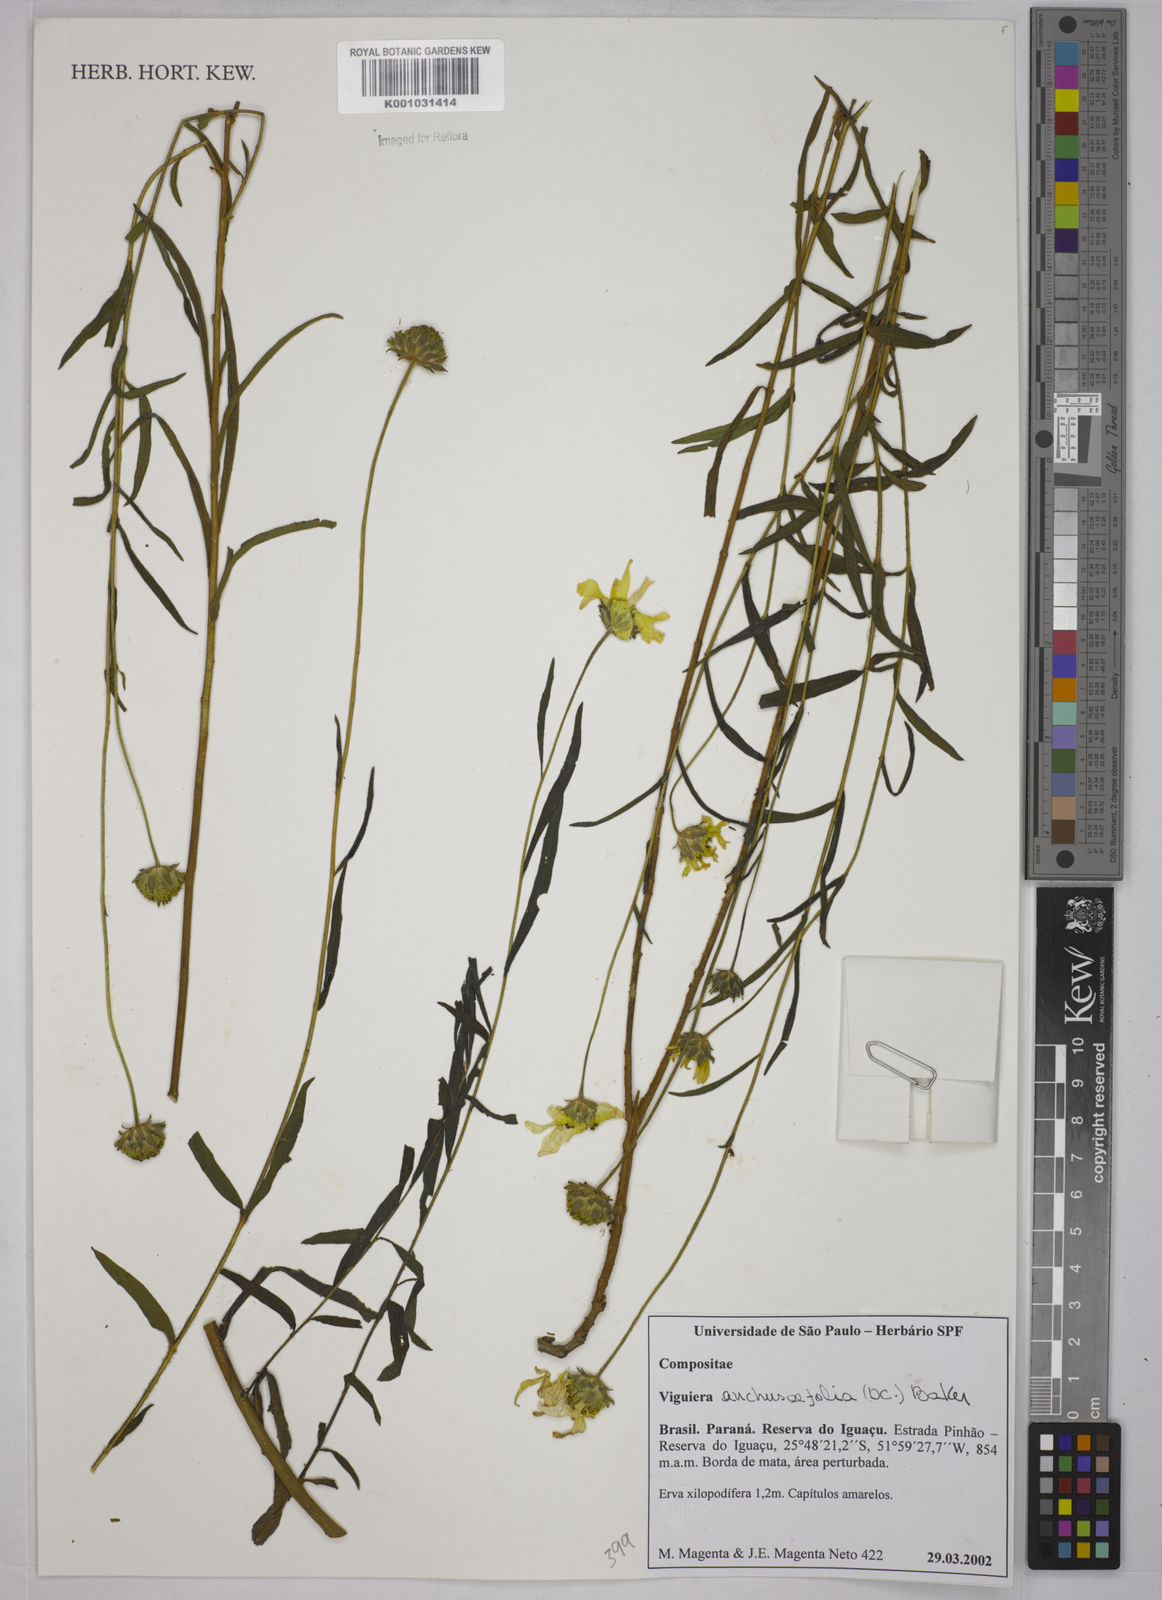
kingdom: Plantae
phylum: Tracheophyta
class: Magnoliopsida
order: Asterales
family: Asteraceae
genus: Viguiera
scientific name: Viguiera
